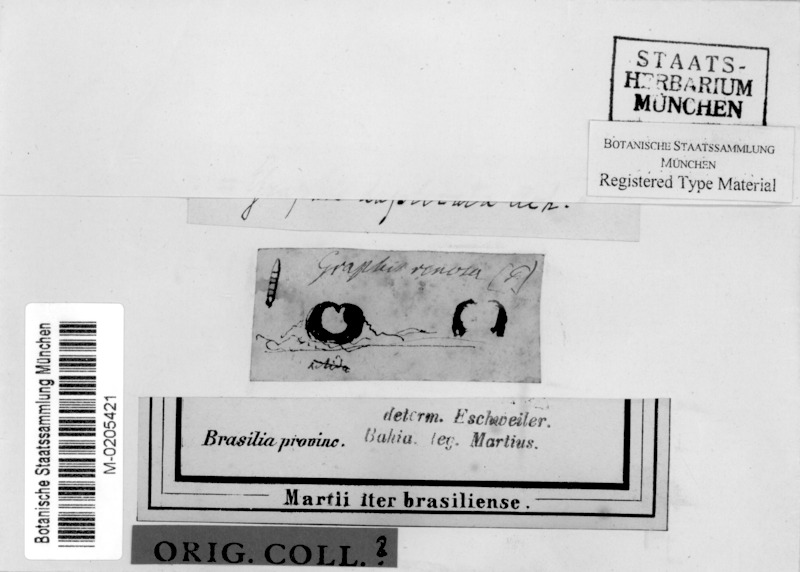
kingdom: Fungi
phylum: Ascomycota
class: Lecanoromycetes
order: Ostropales
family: Graphidaceae
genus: Graphis
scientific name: Graphis
